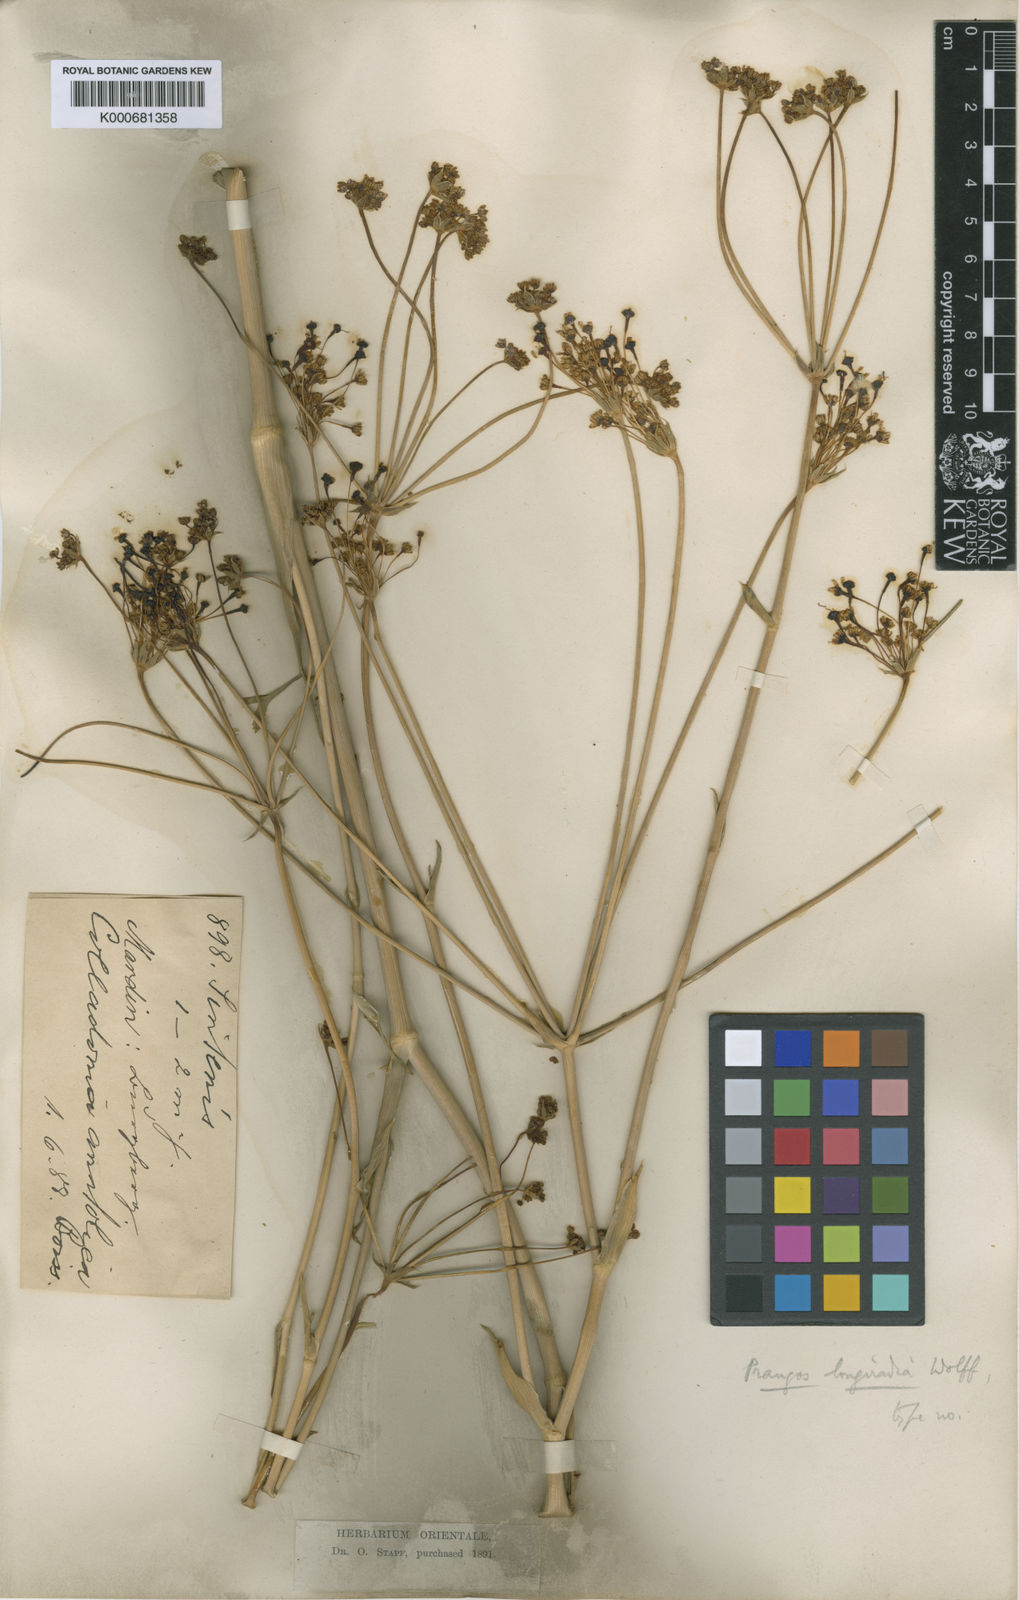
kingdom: Plantae
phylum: Tracheophyta
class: Magnoliopsida
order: Apiales
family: Apiaceae
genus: Heptaptera
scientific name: Heptaptera anatolica
